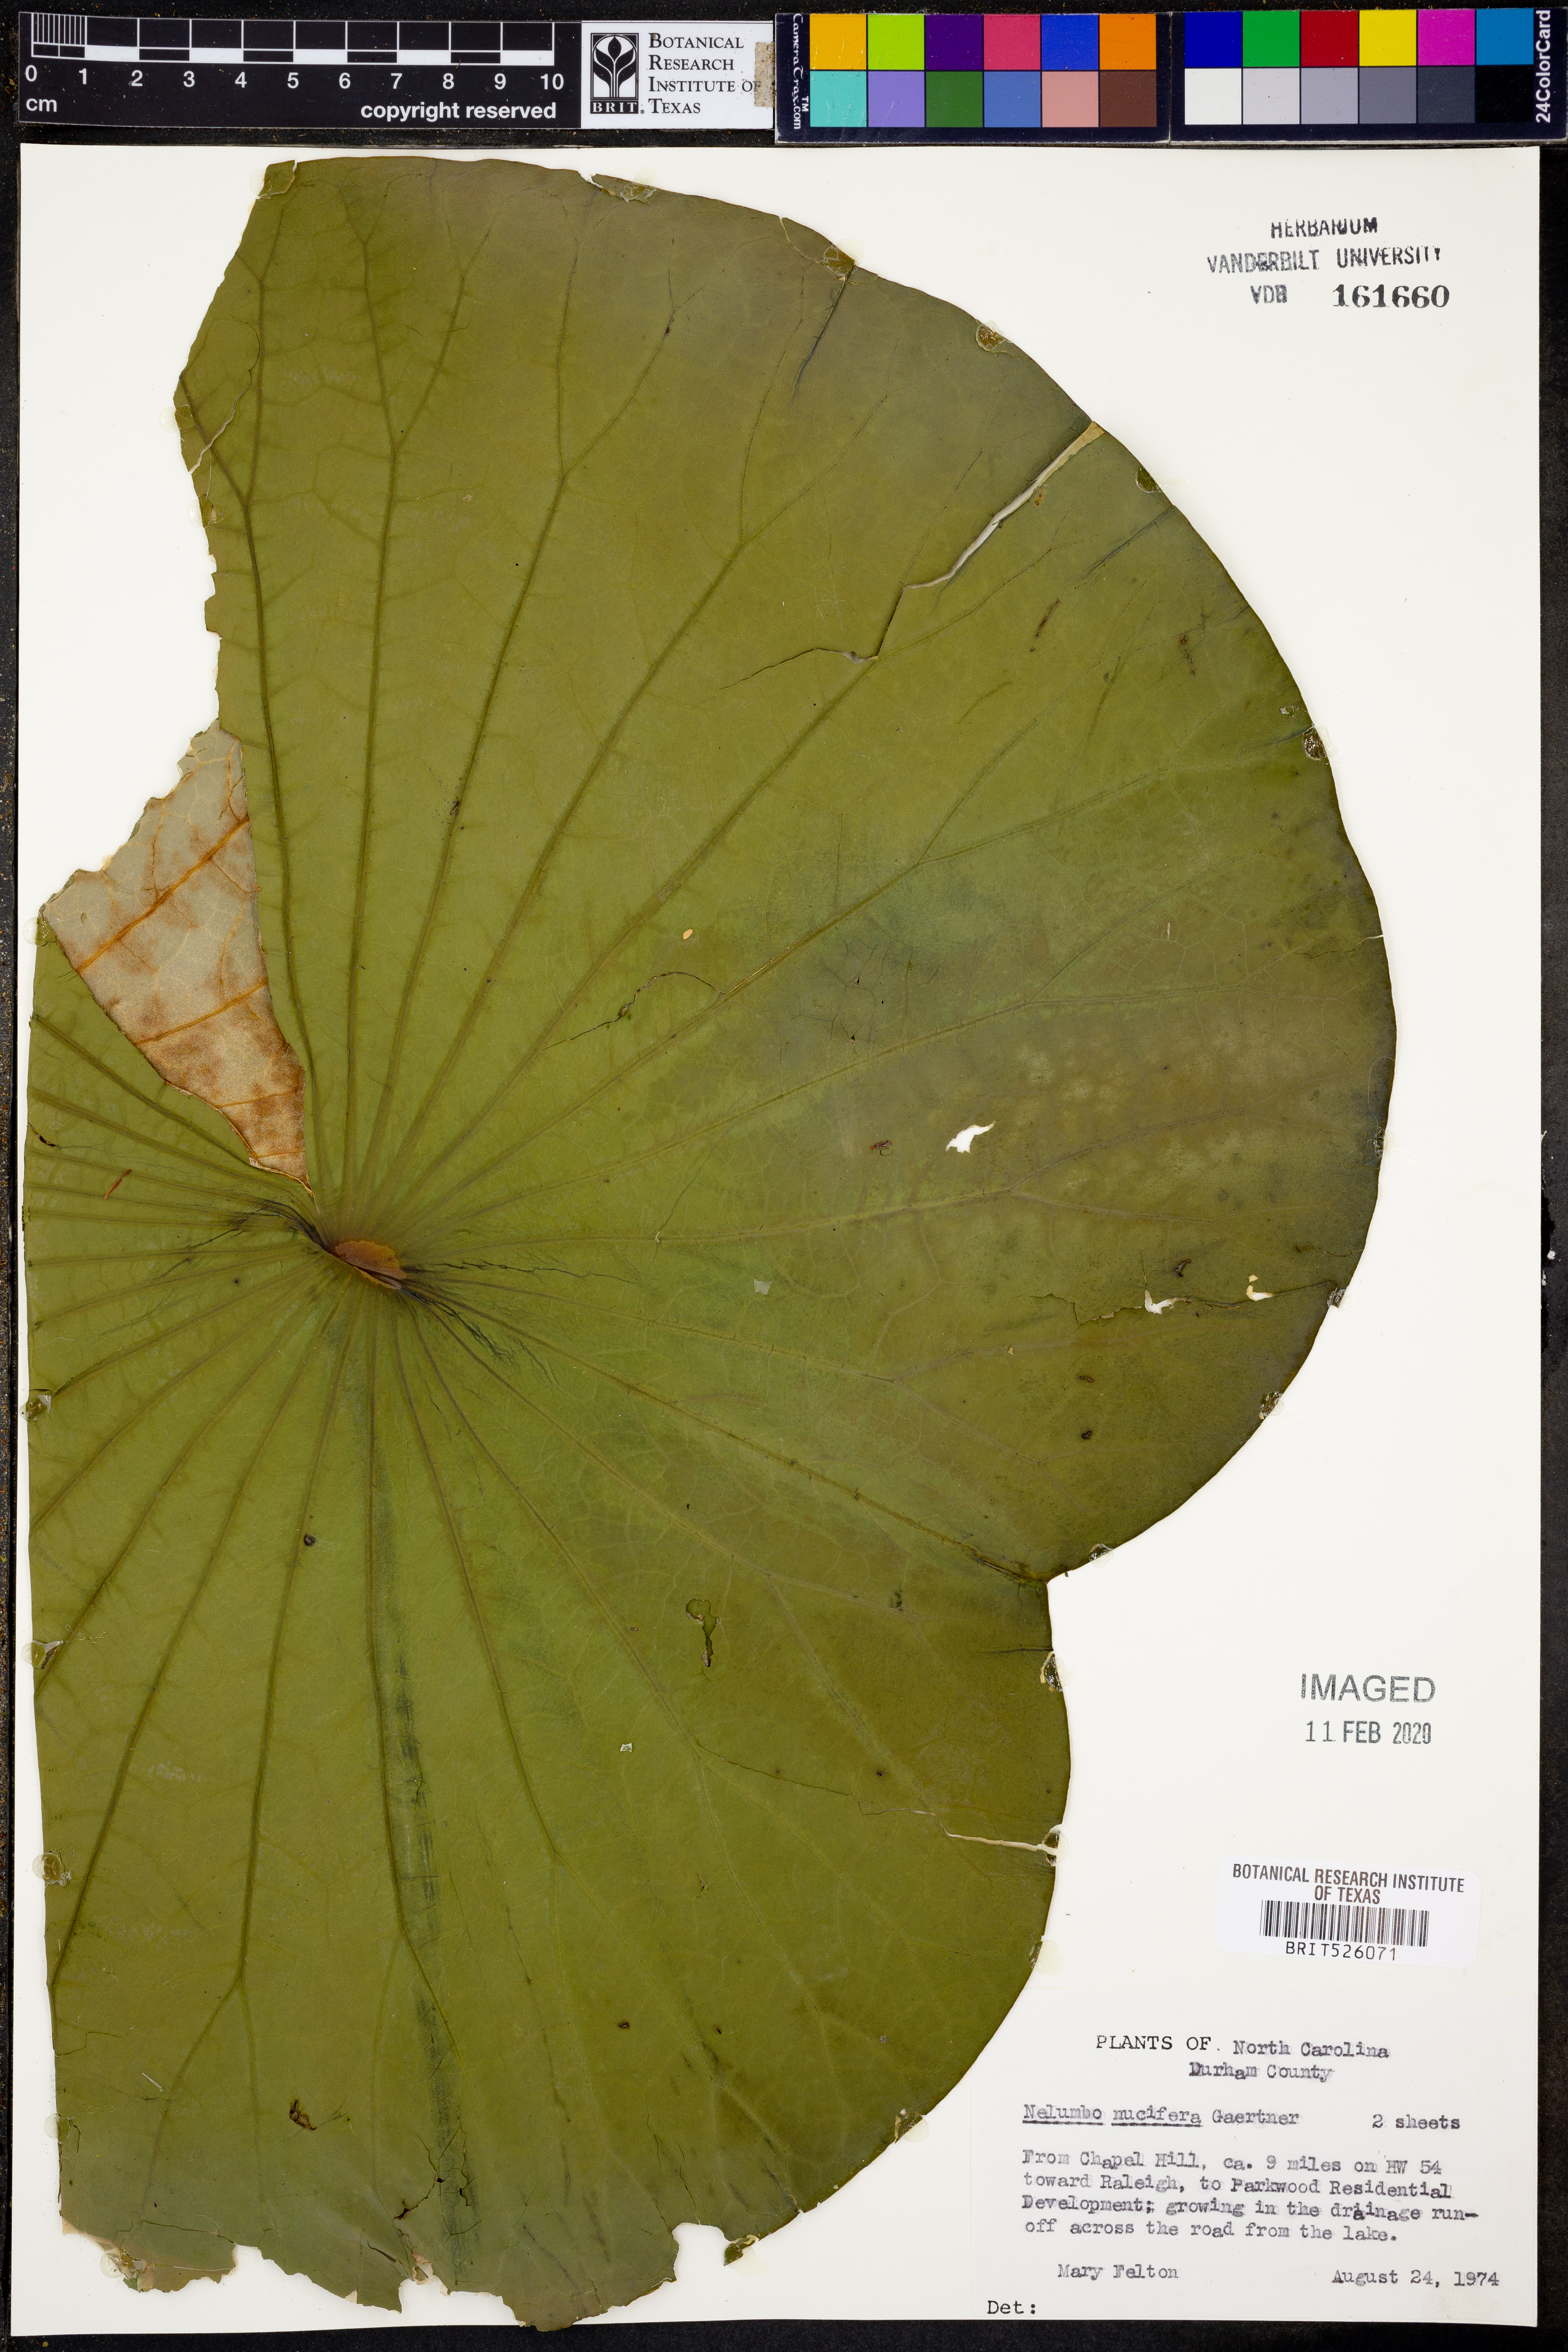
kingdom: Plantae
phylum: Tracheophyta
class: Magnoliopsida
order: Proteales
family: Nelumbonaceae
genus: Nelumbo
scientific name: Nelumbo nucifera
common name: Sacred lotus
